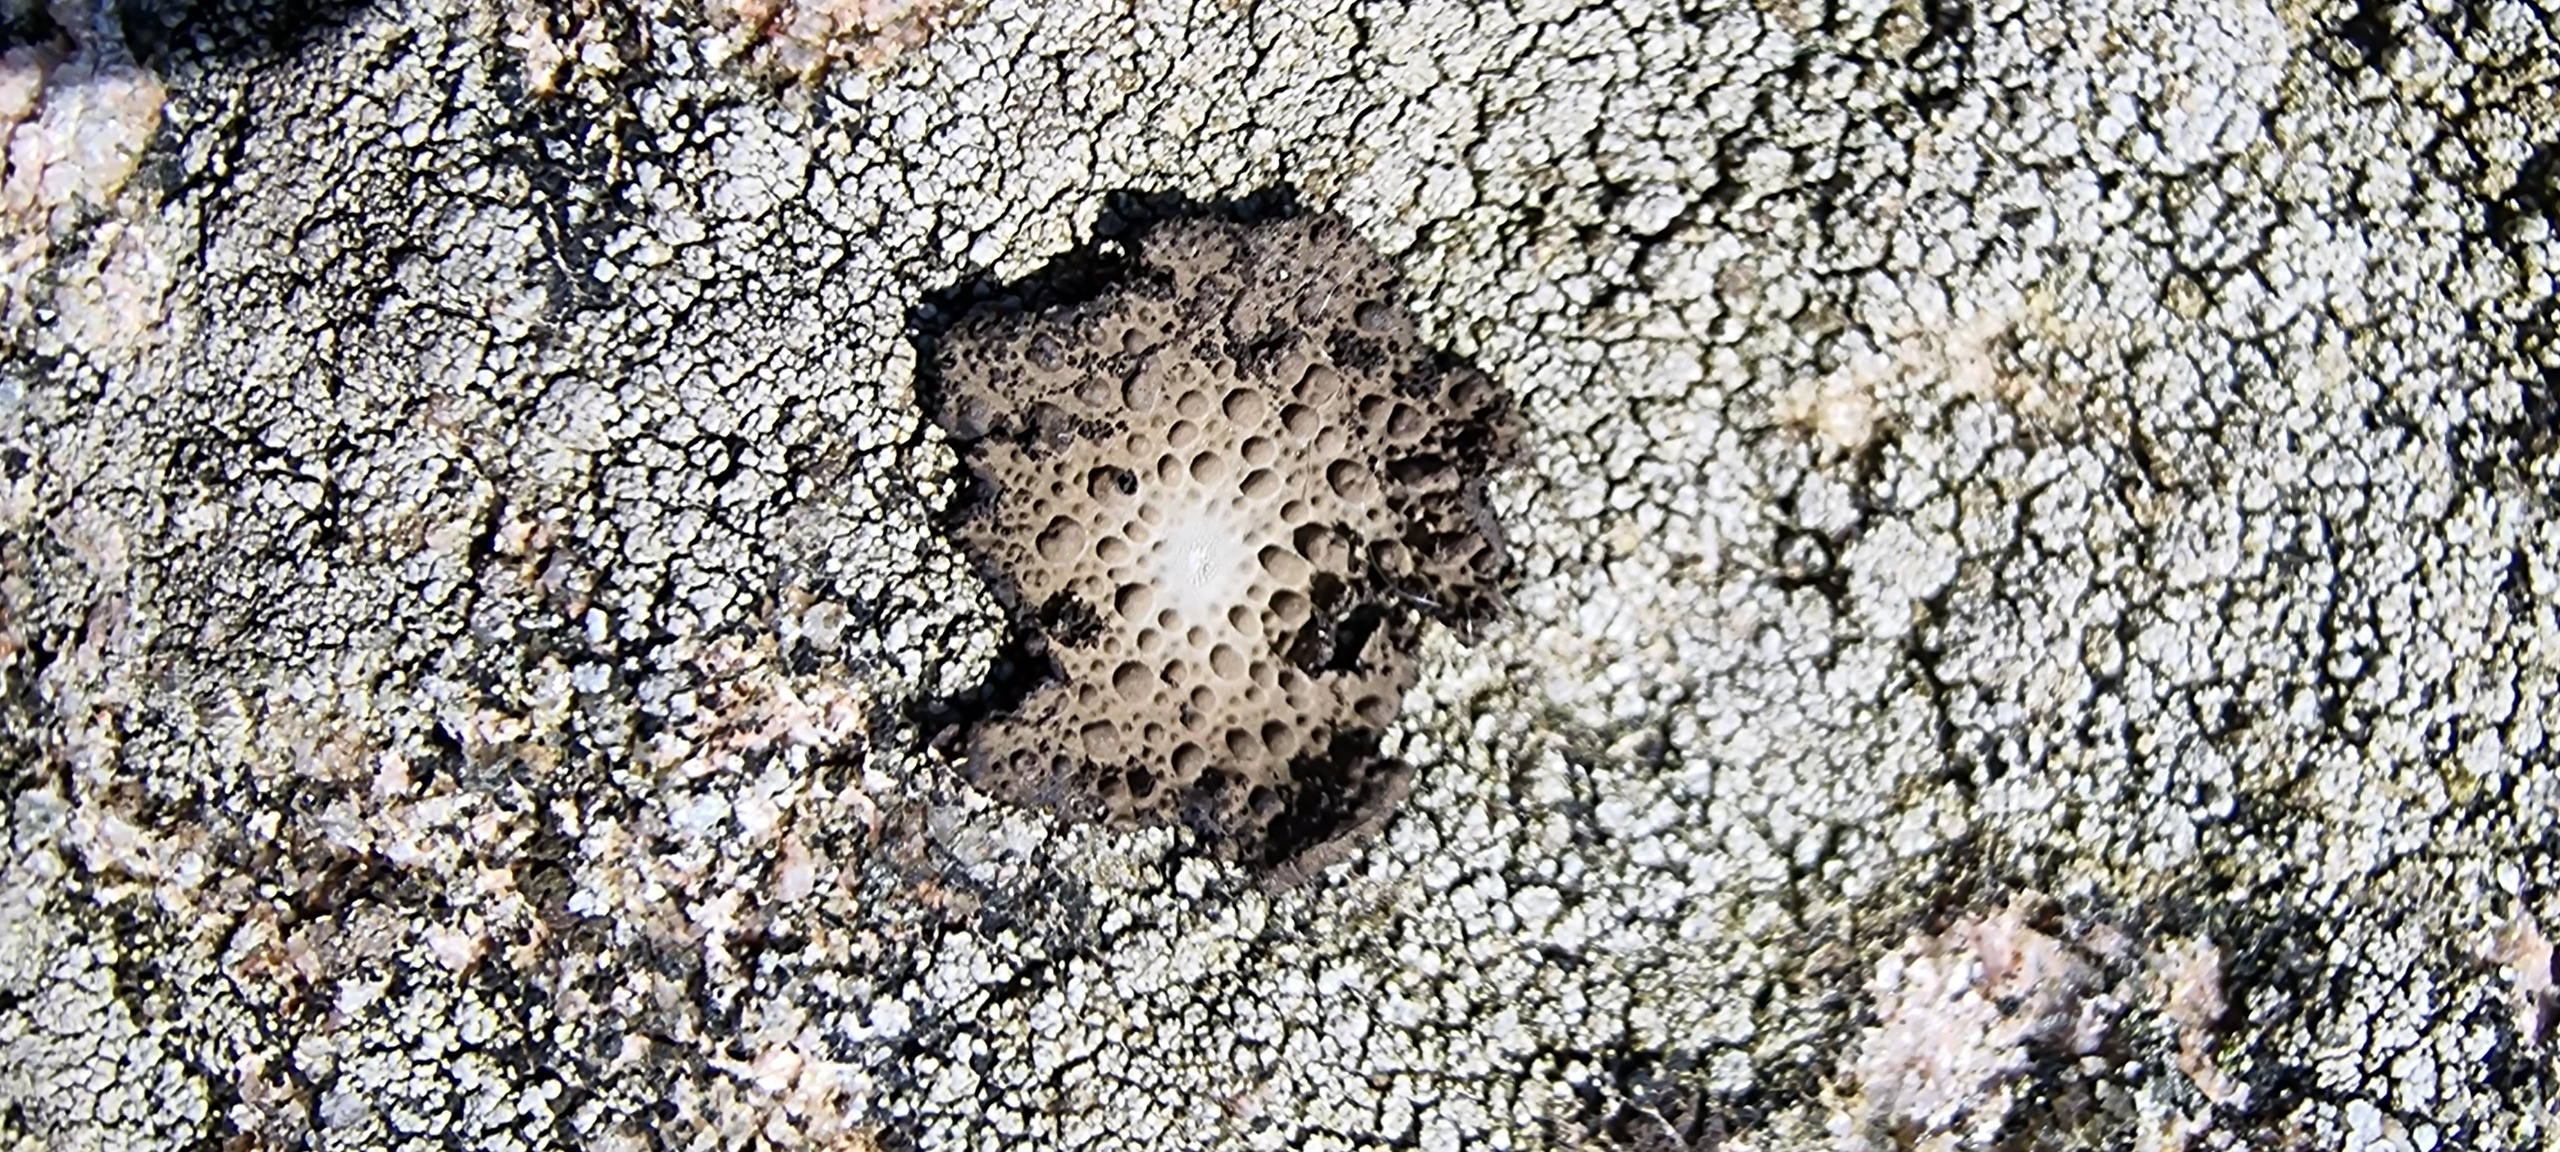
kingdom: Fungi
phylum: Ascomycota
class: Lecanoromycetes
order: Umbilicariales
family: Umbilicariaceae
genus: Lasallia
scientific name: Lasallia pustulata
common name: Buklet navlelav
